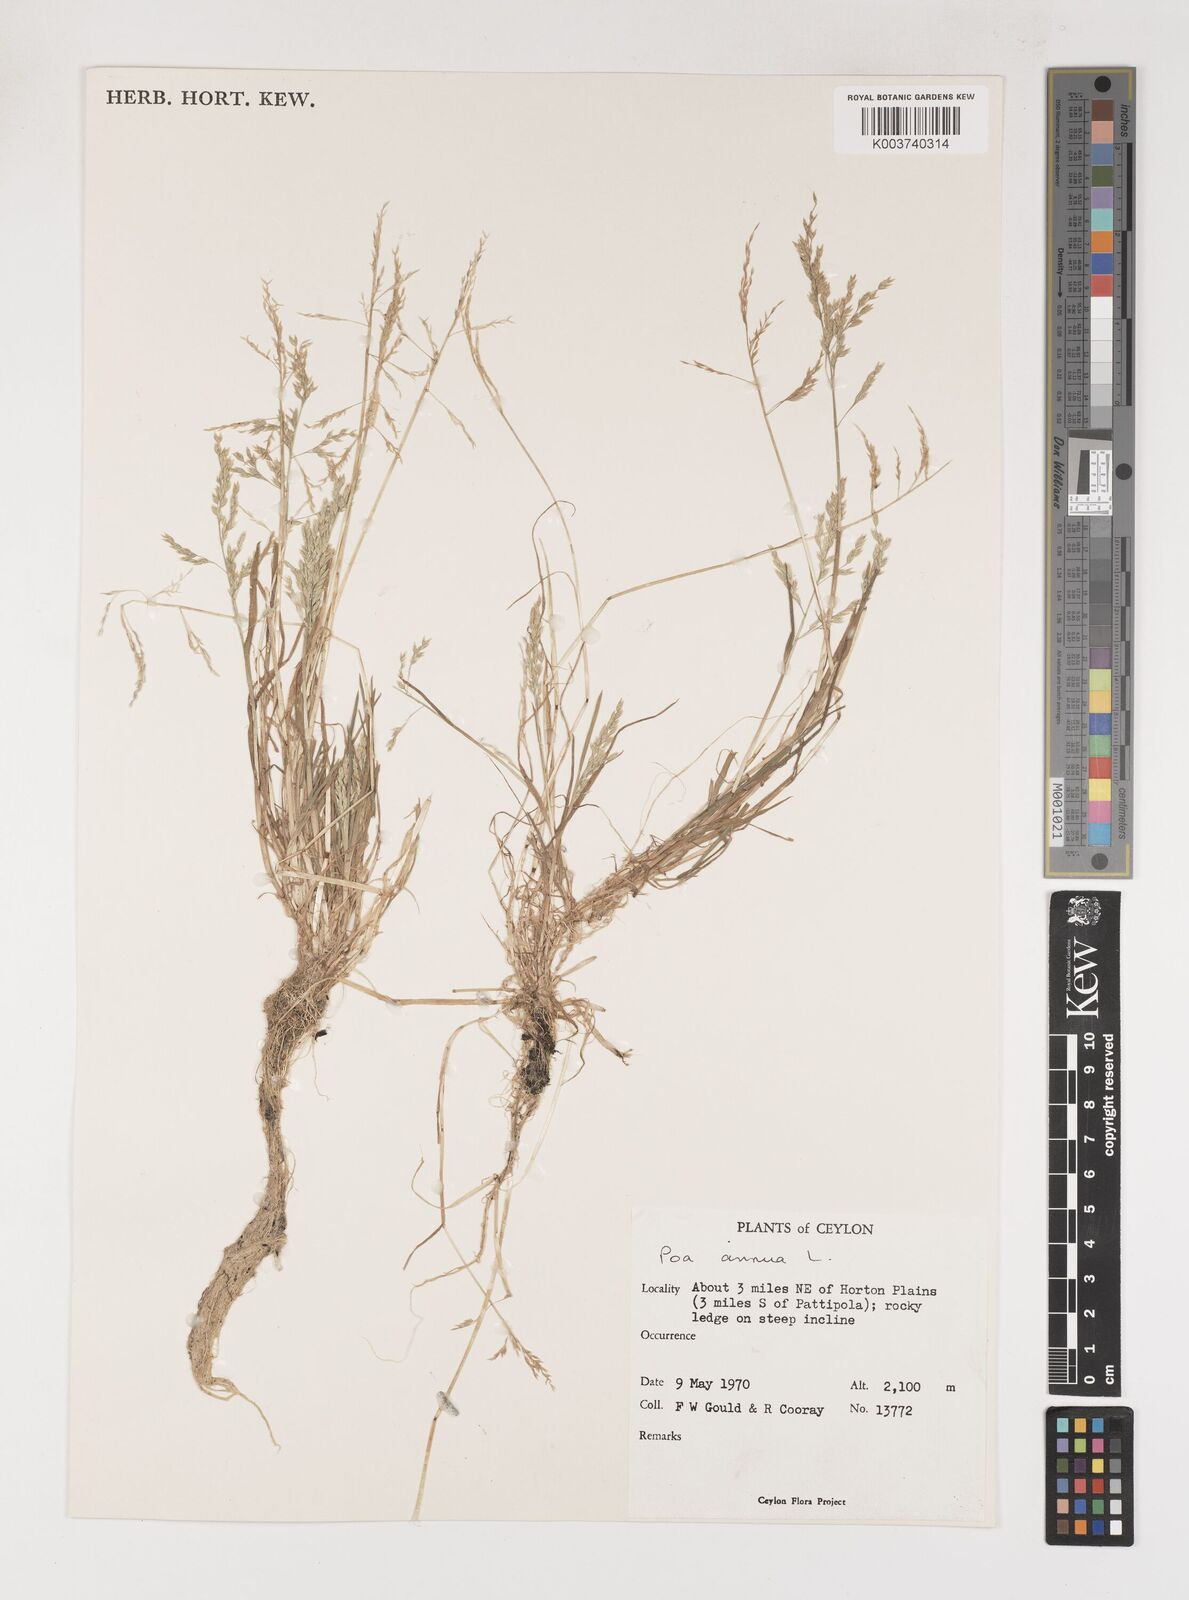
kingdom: Plantae
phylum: Tracheophyta
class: Liliopsida
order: Poales
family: Poaceae
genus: Poa
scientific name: Poa annua
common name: Annual bluegrass
